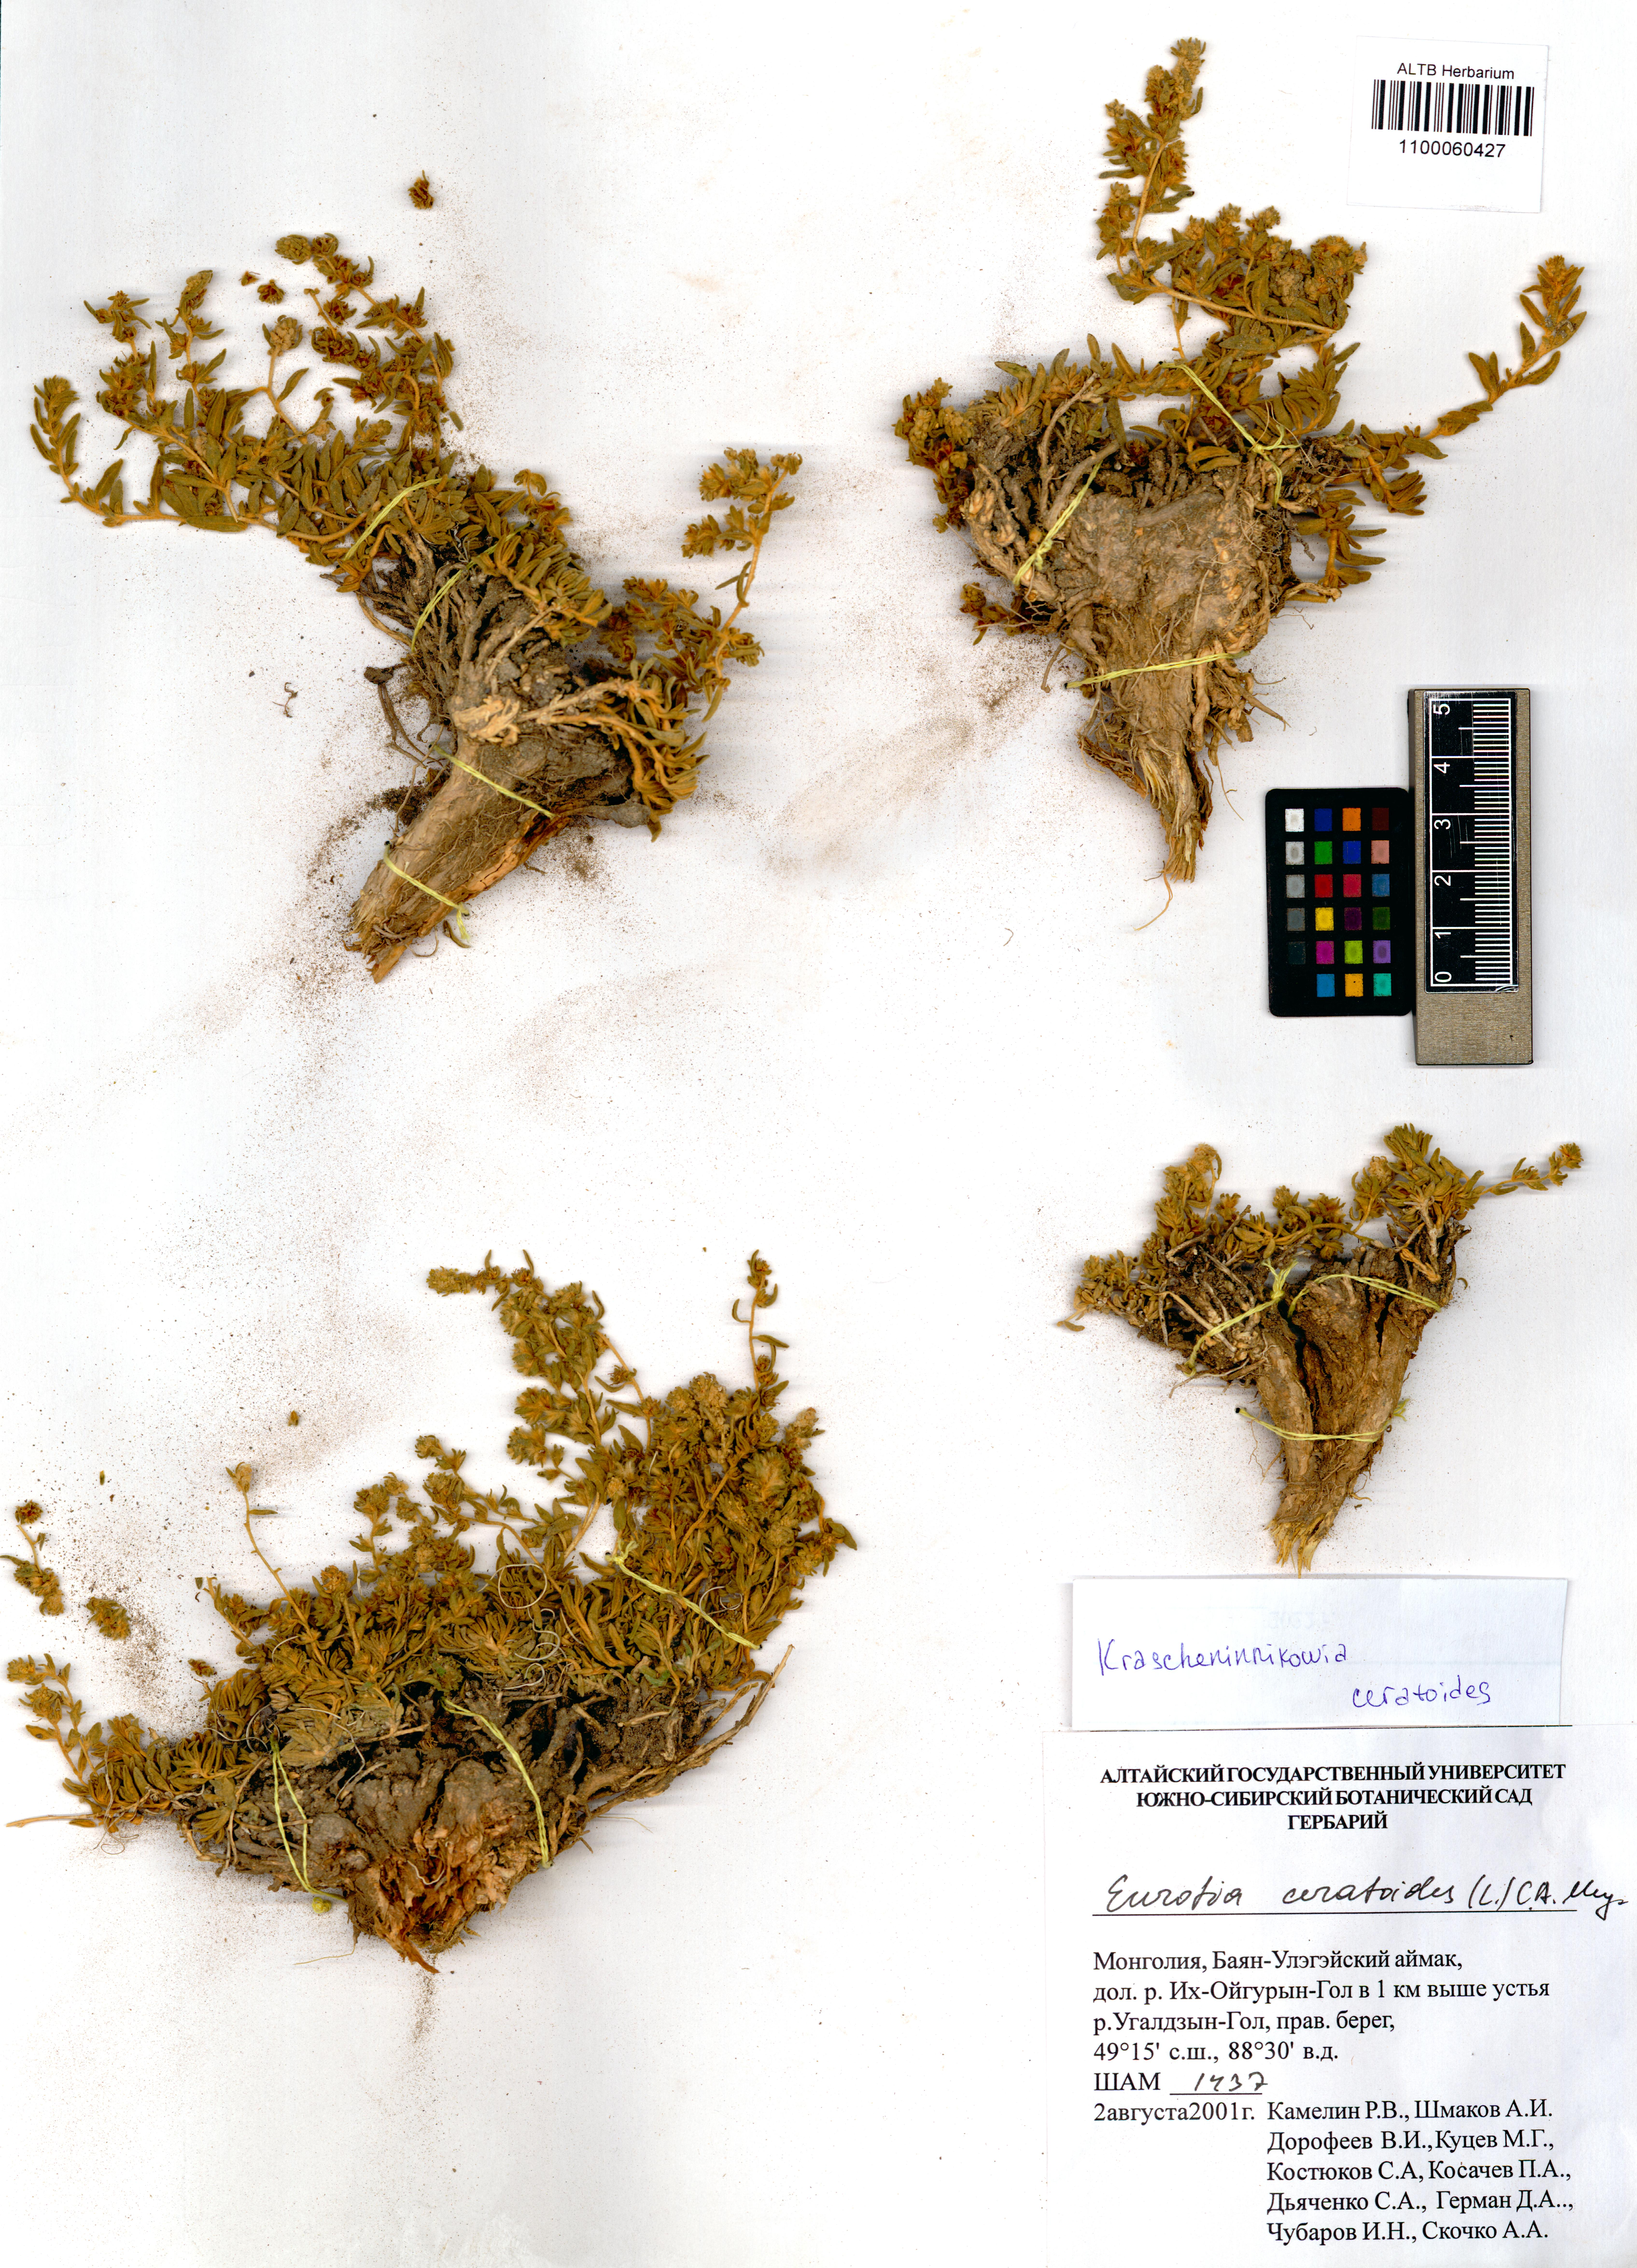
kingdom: Plantae
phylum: Tracheophyta
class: Magnoliopsida
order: Caryophyllales
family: Amaranthaceae
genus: Krascheninnikovia
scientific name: Krascheninnikovia ceratoides
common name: Pamirian winterfat
